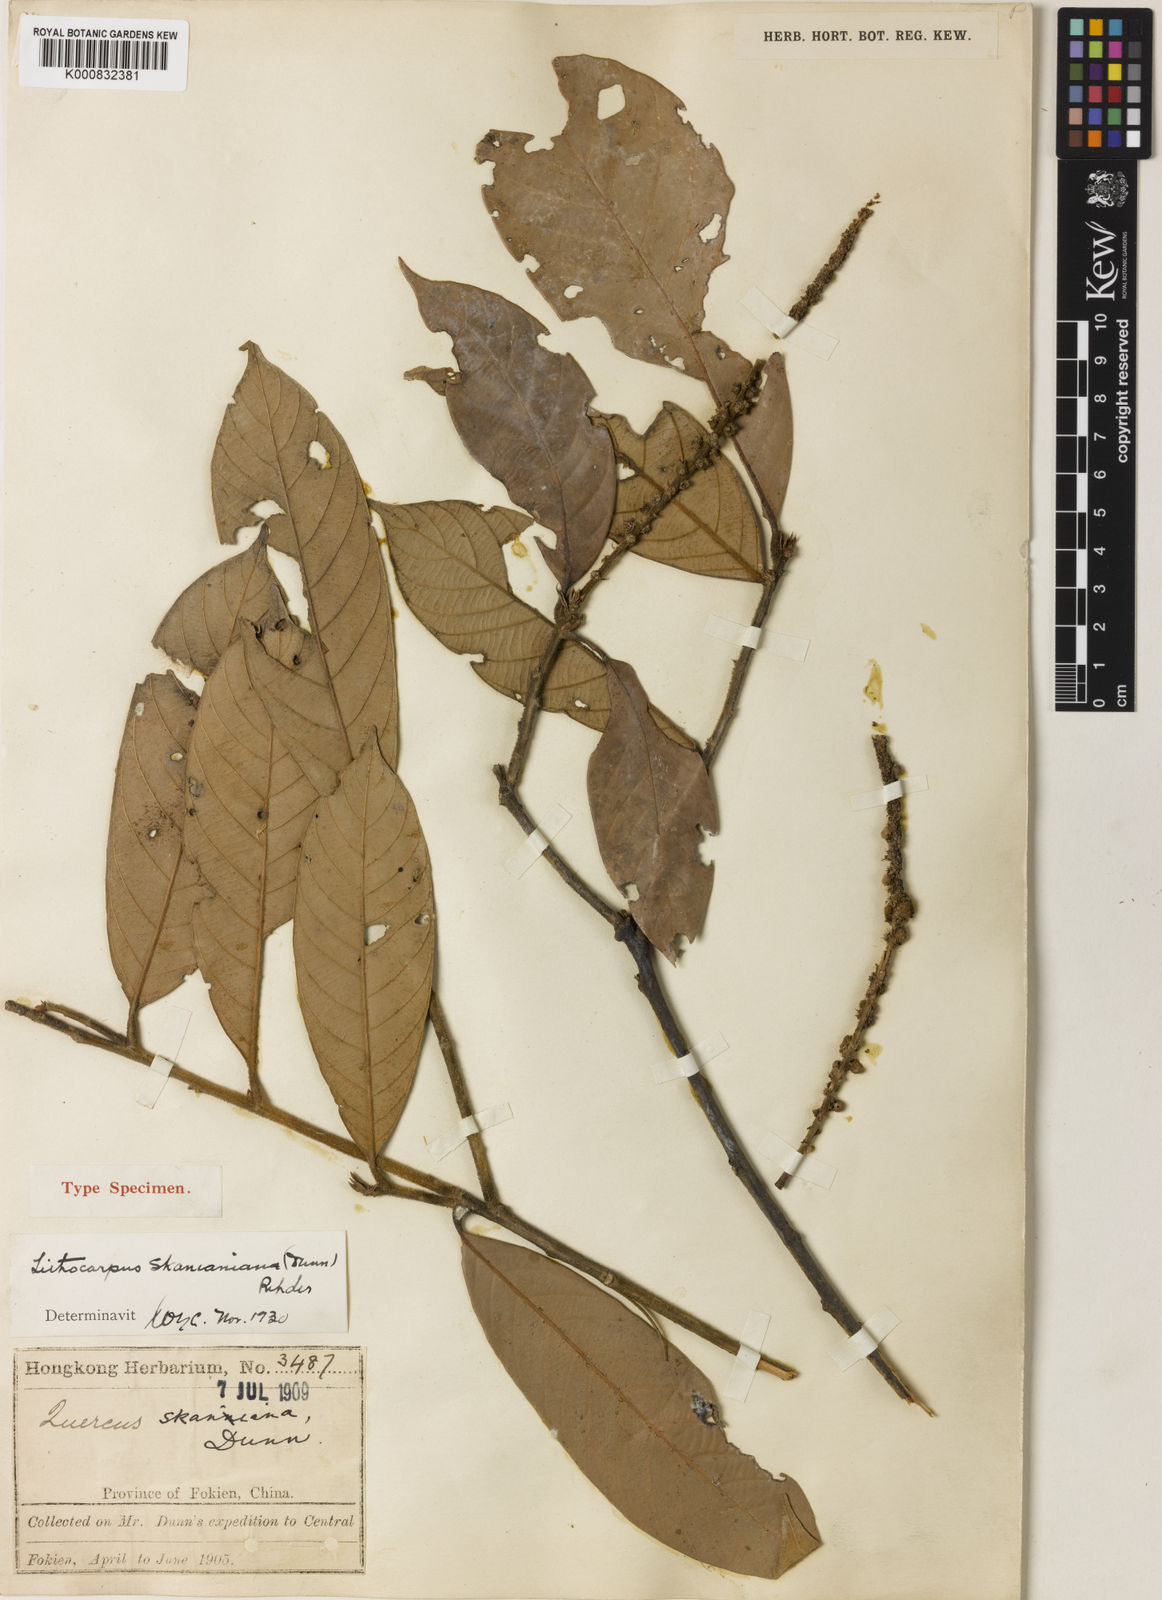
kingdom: Plantae
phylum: Tracheophyta
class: Magnoliopsida
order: Fagales
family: Fagaceae
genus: Lithocarpus
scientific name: Lithocarpus skanianus
